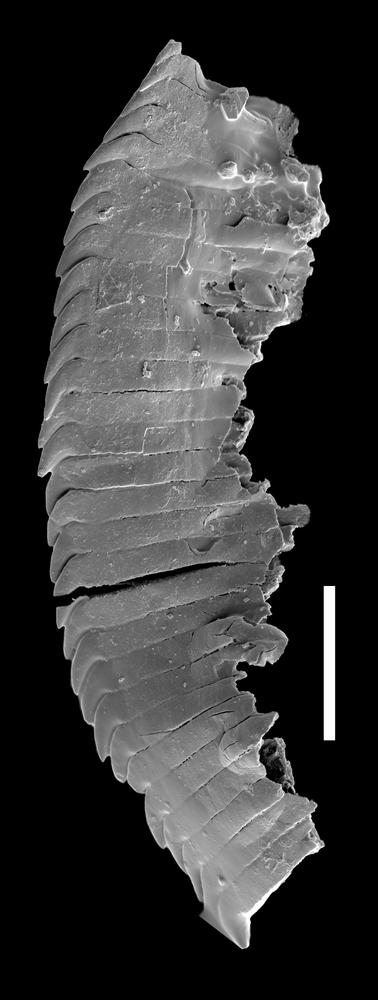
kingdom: Animalia
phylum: Annelida
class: Polychaeta
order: Eunicida
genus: Lunoprionella
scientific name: Lunoprionella
